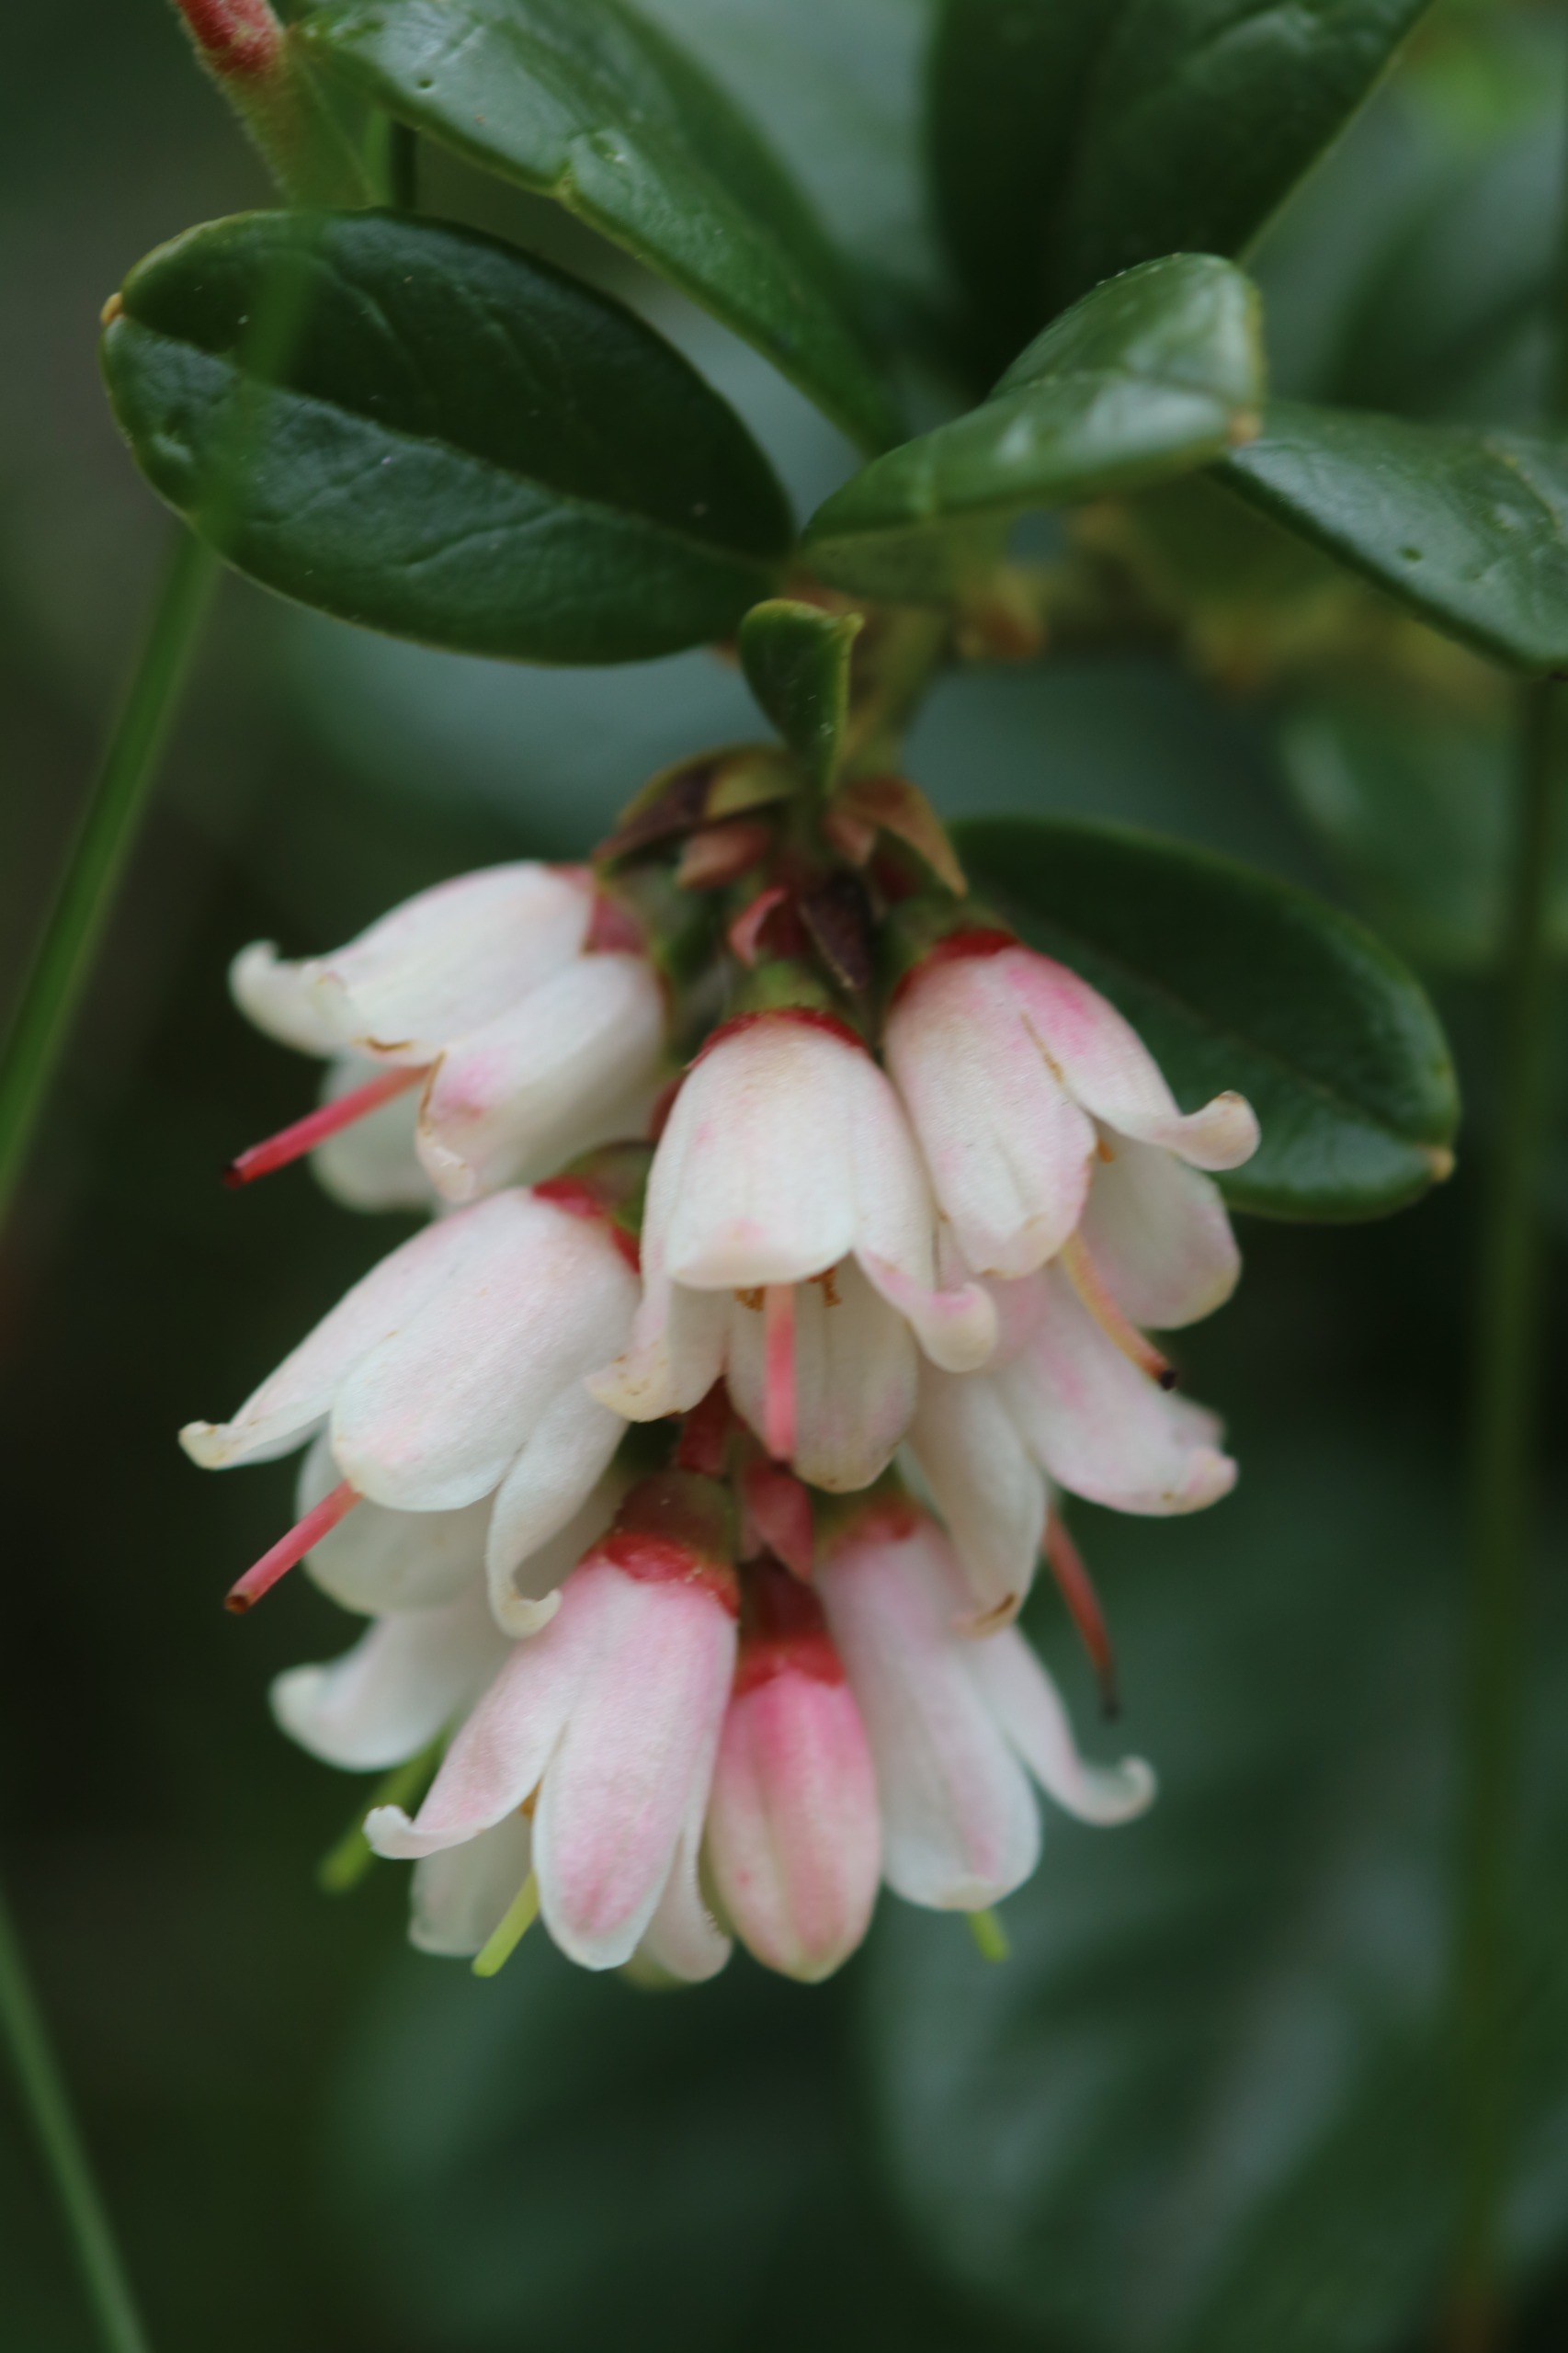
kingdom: Plantae
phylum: Tracheophyta
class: Magnoliopsida
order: Ericales
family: Ericaceae
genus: Vaccinium
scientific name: Vaccinium vitis-idaea
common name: Tyttebær
